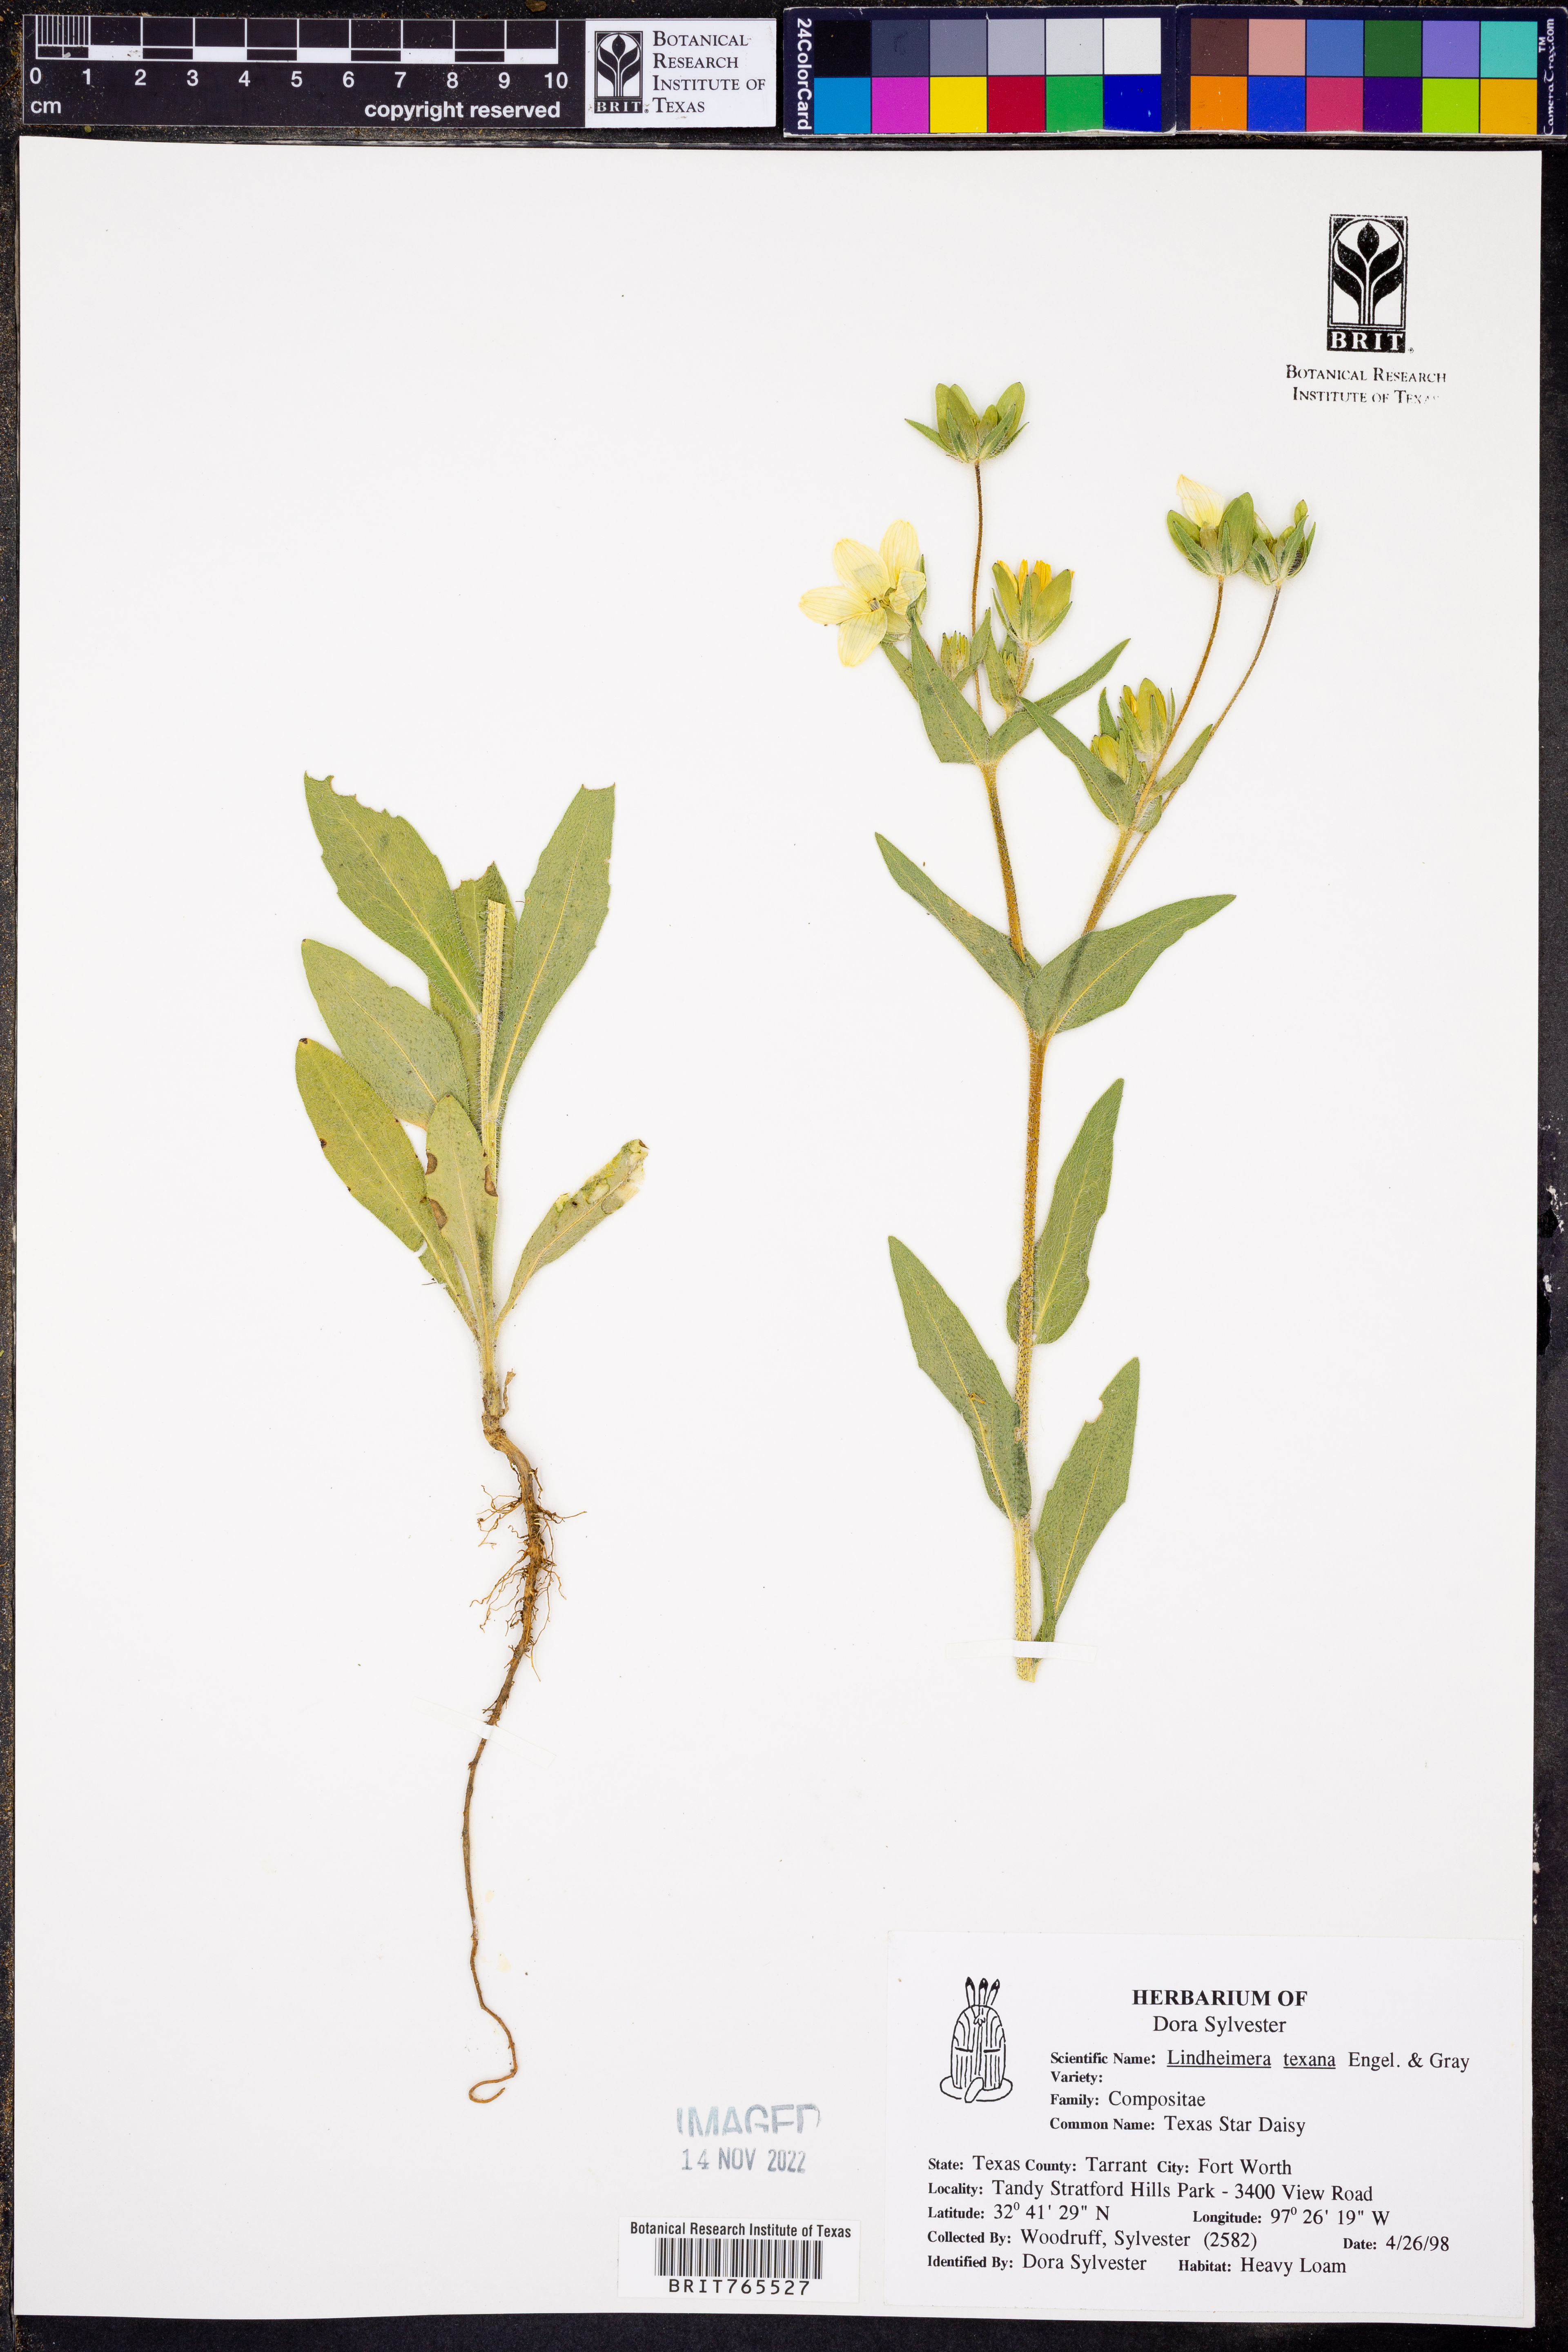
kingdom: Plantae
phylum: Tracheophyta
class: Magnoliopsida
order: Asterales
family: Asteraceae
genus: Lindheimera
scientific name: Lindheimera texana
